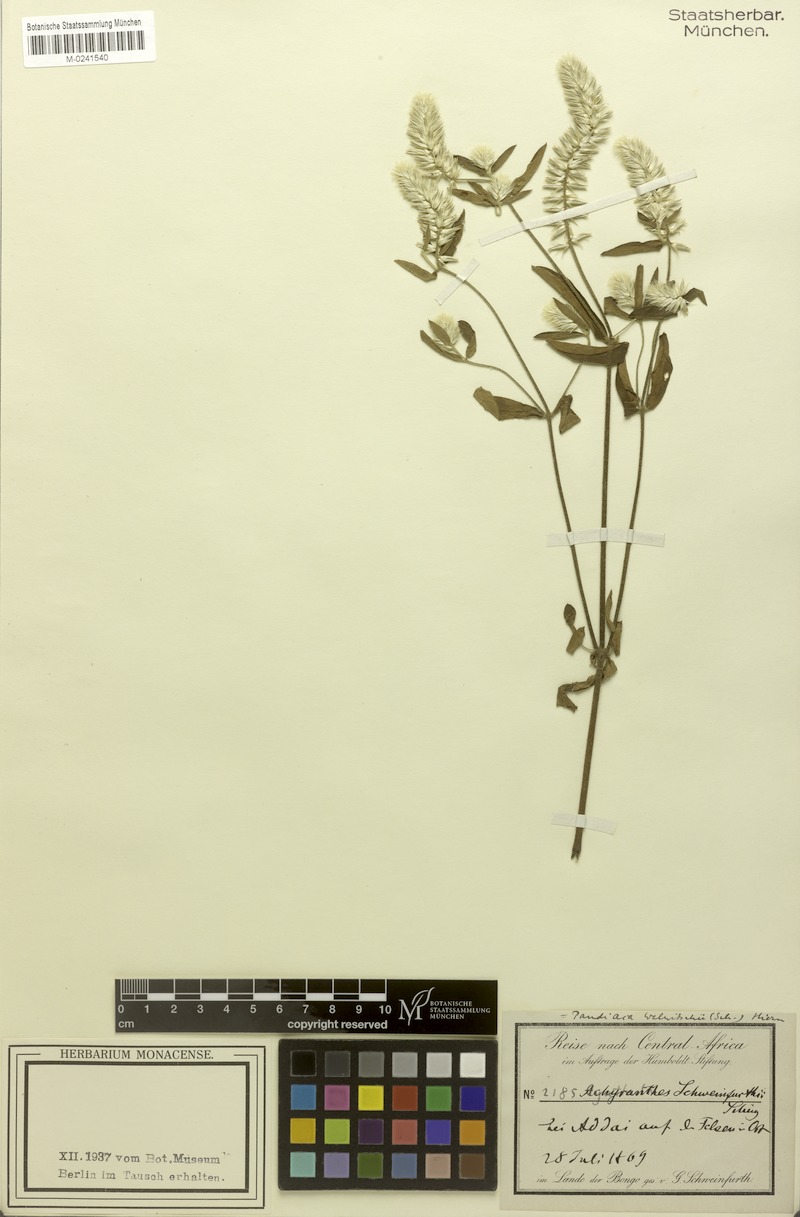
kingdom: Plantae
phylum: Tracheophyta
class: Magnoliopsida
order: Caryophyllales
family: Amaranthaceae
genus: Pandiaka
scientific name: Pandiaka welwitschii
